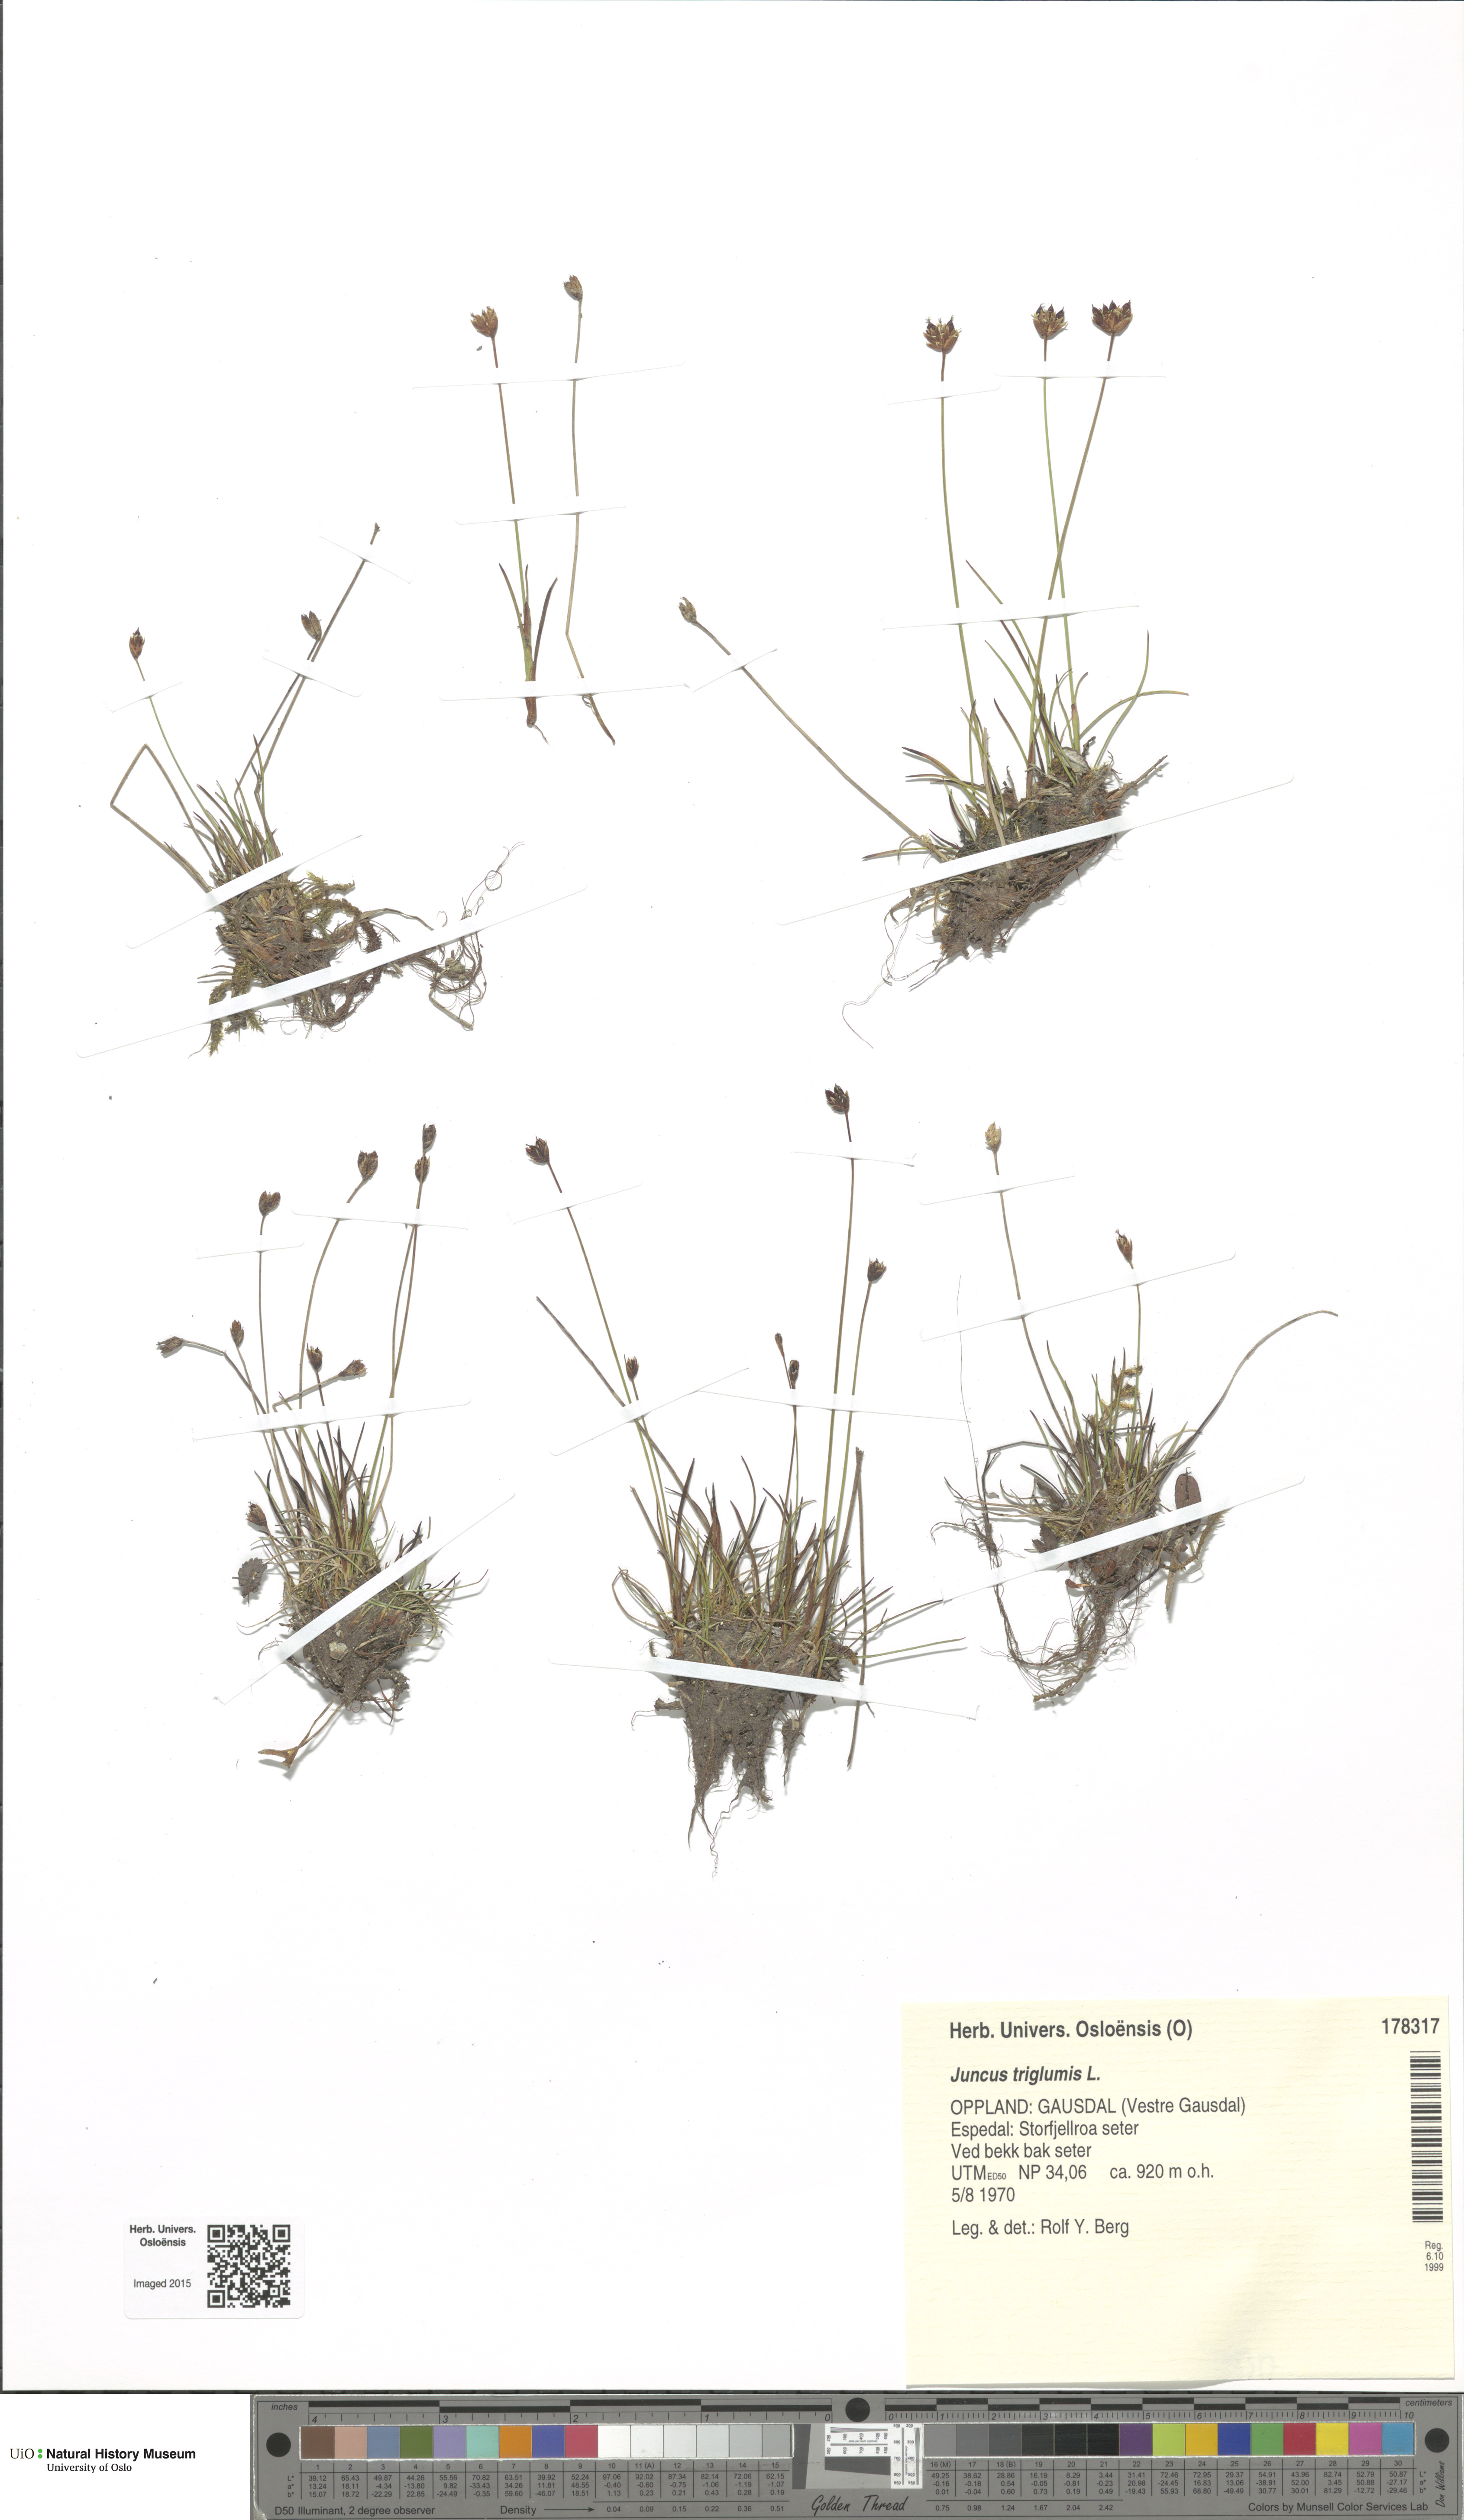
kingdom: Plantae
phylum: Tracheophyta
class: Liliopsida
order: Poales
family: Juncaceae
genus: Juncus
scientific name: Juncus triglumis
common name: Three-flowered rush
